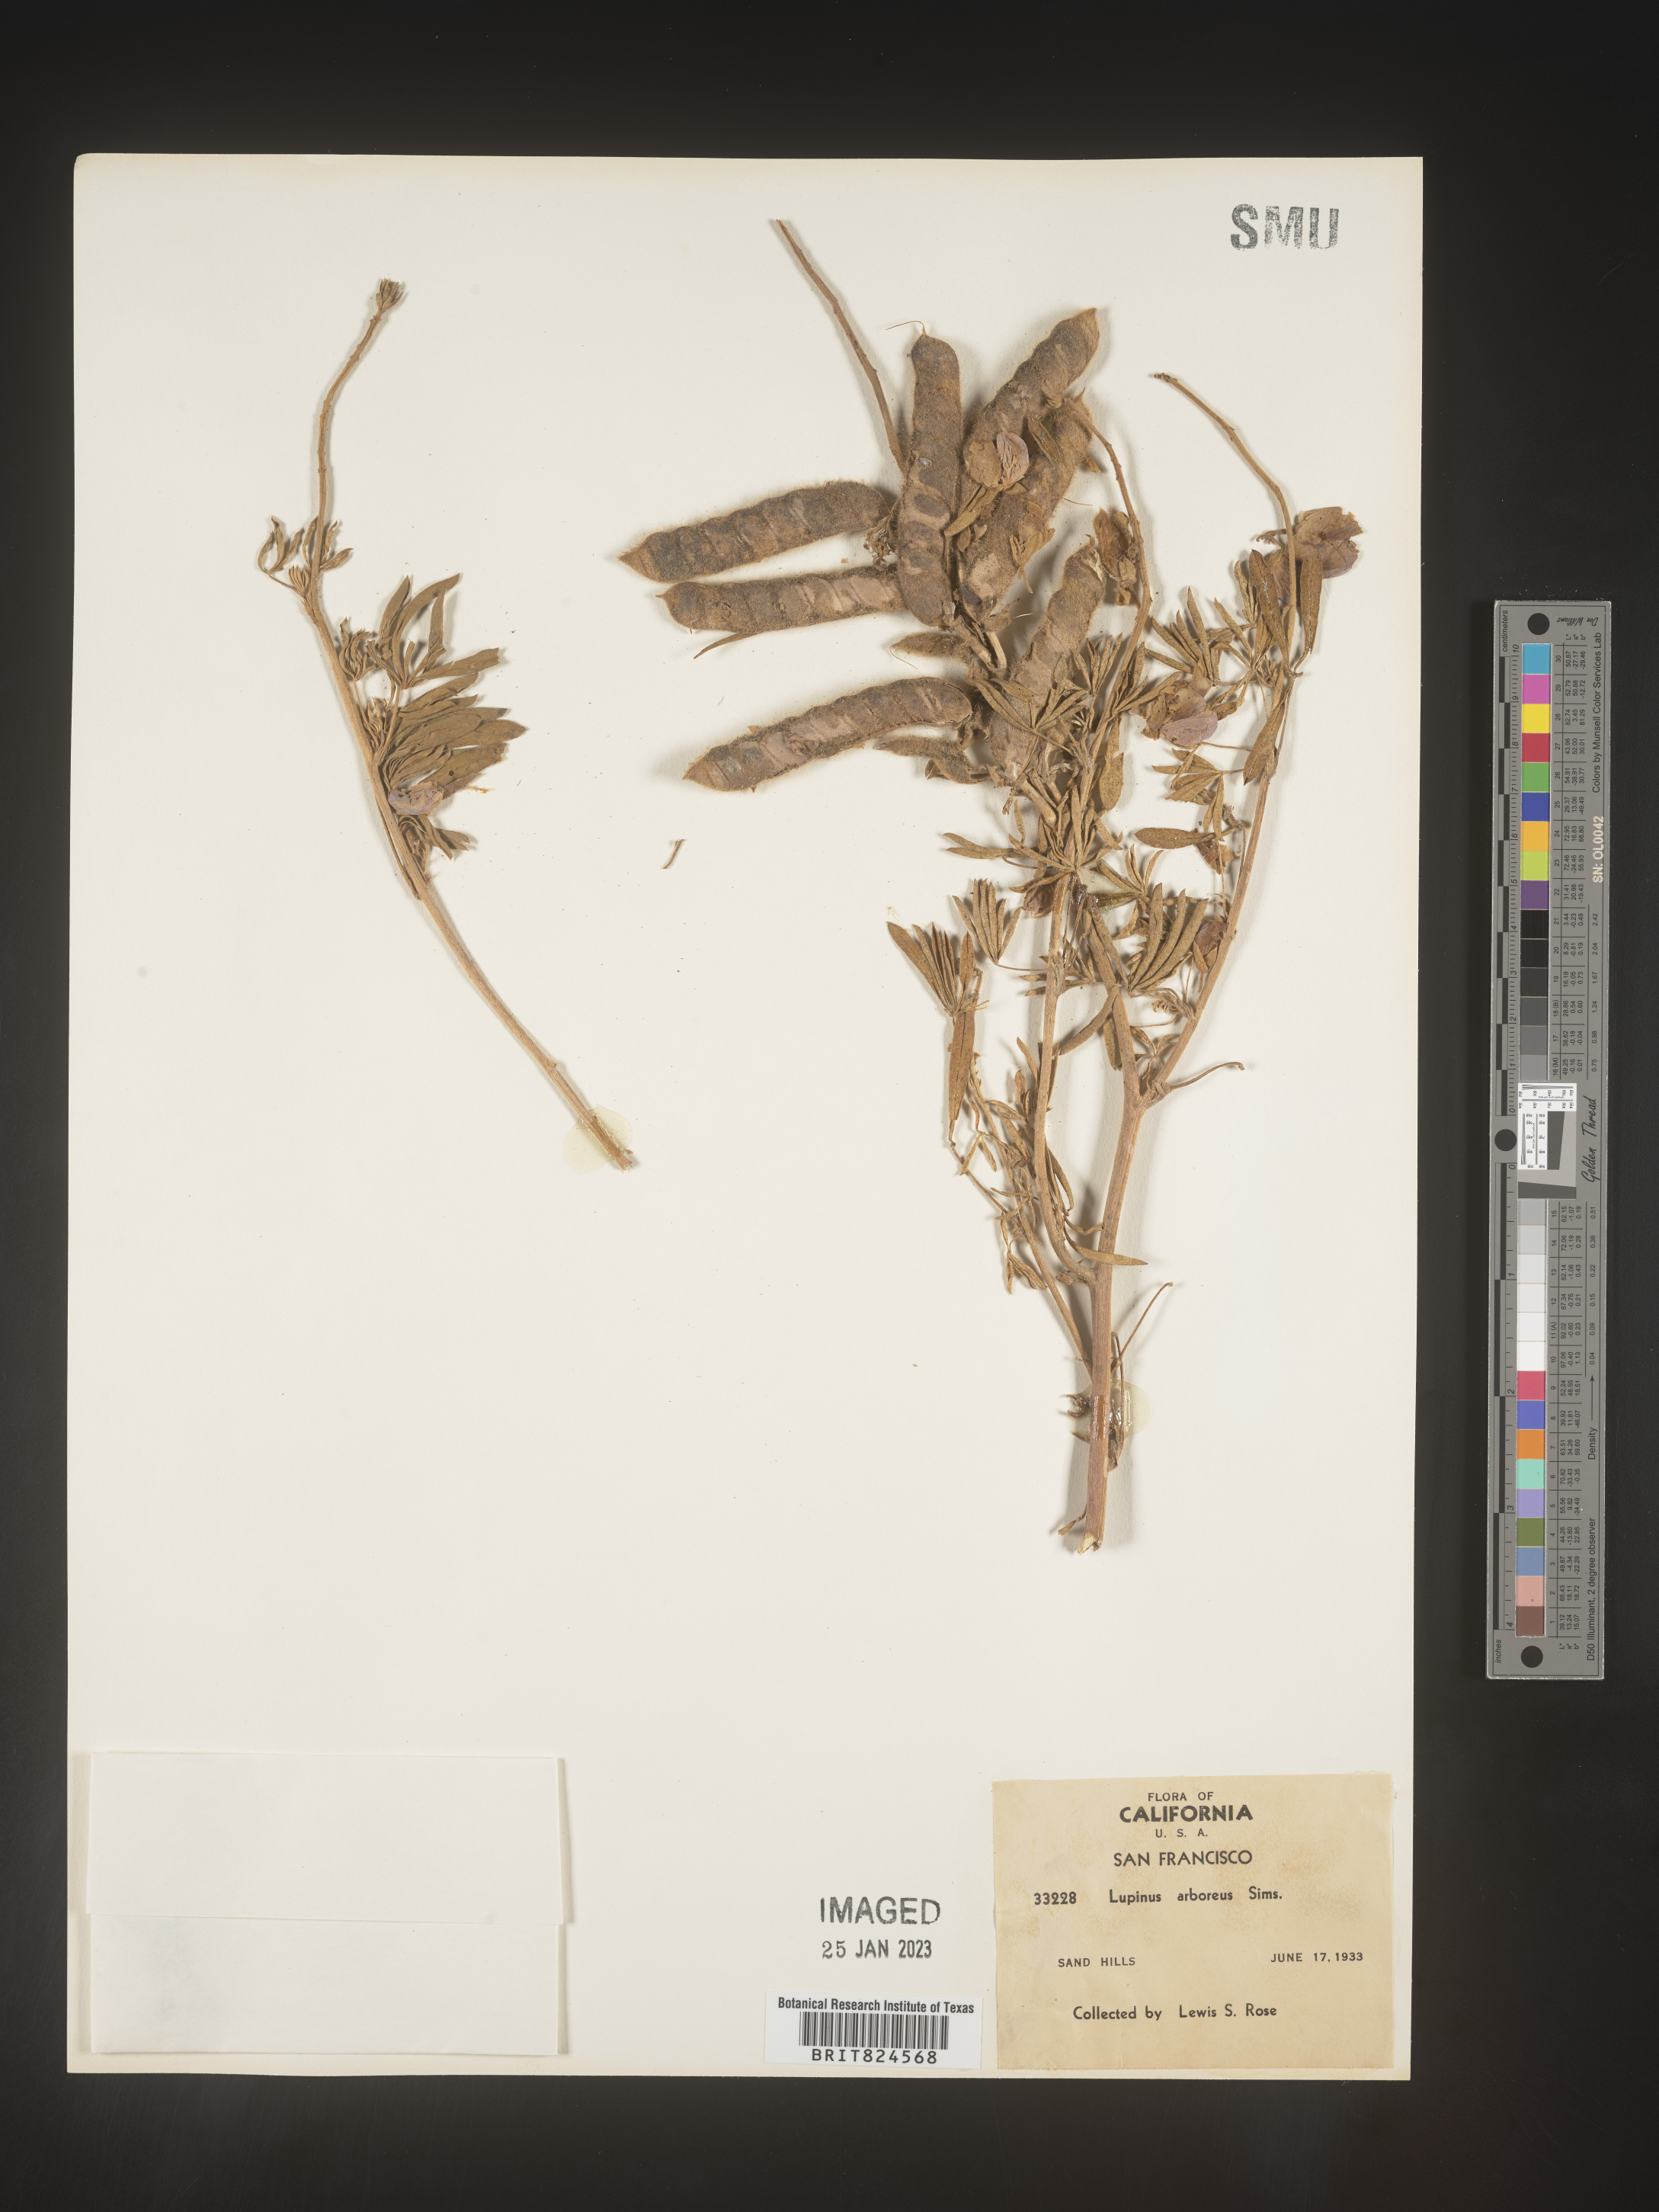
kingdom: Plantae
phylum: Tracheophyta
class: Magnoliopsida
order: Fabales
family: Fabaceae
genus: Lupinus
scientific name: Lupinus arboreus
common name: Yellow bush lupine
